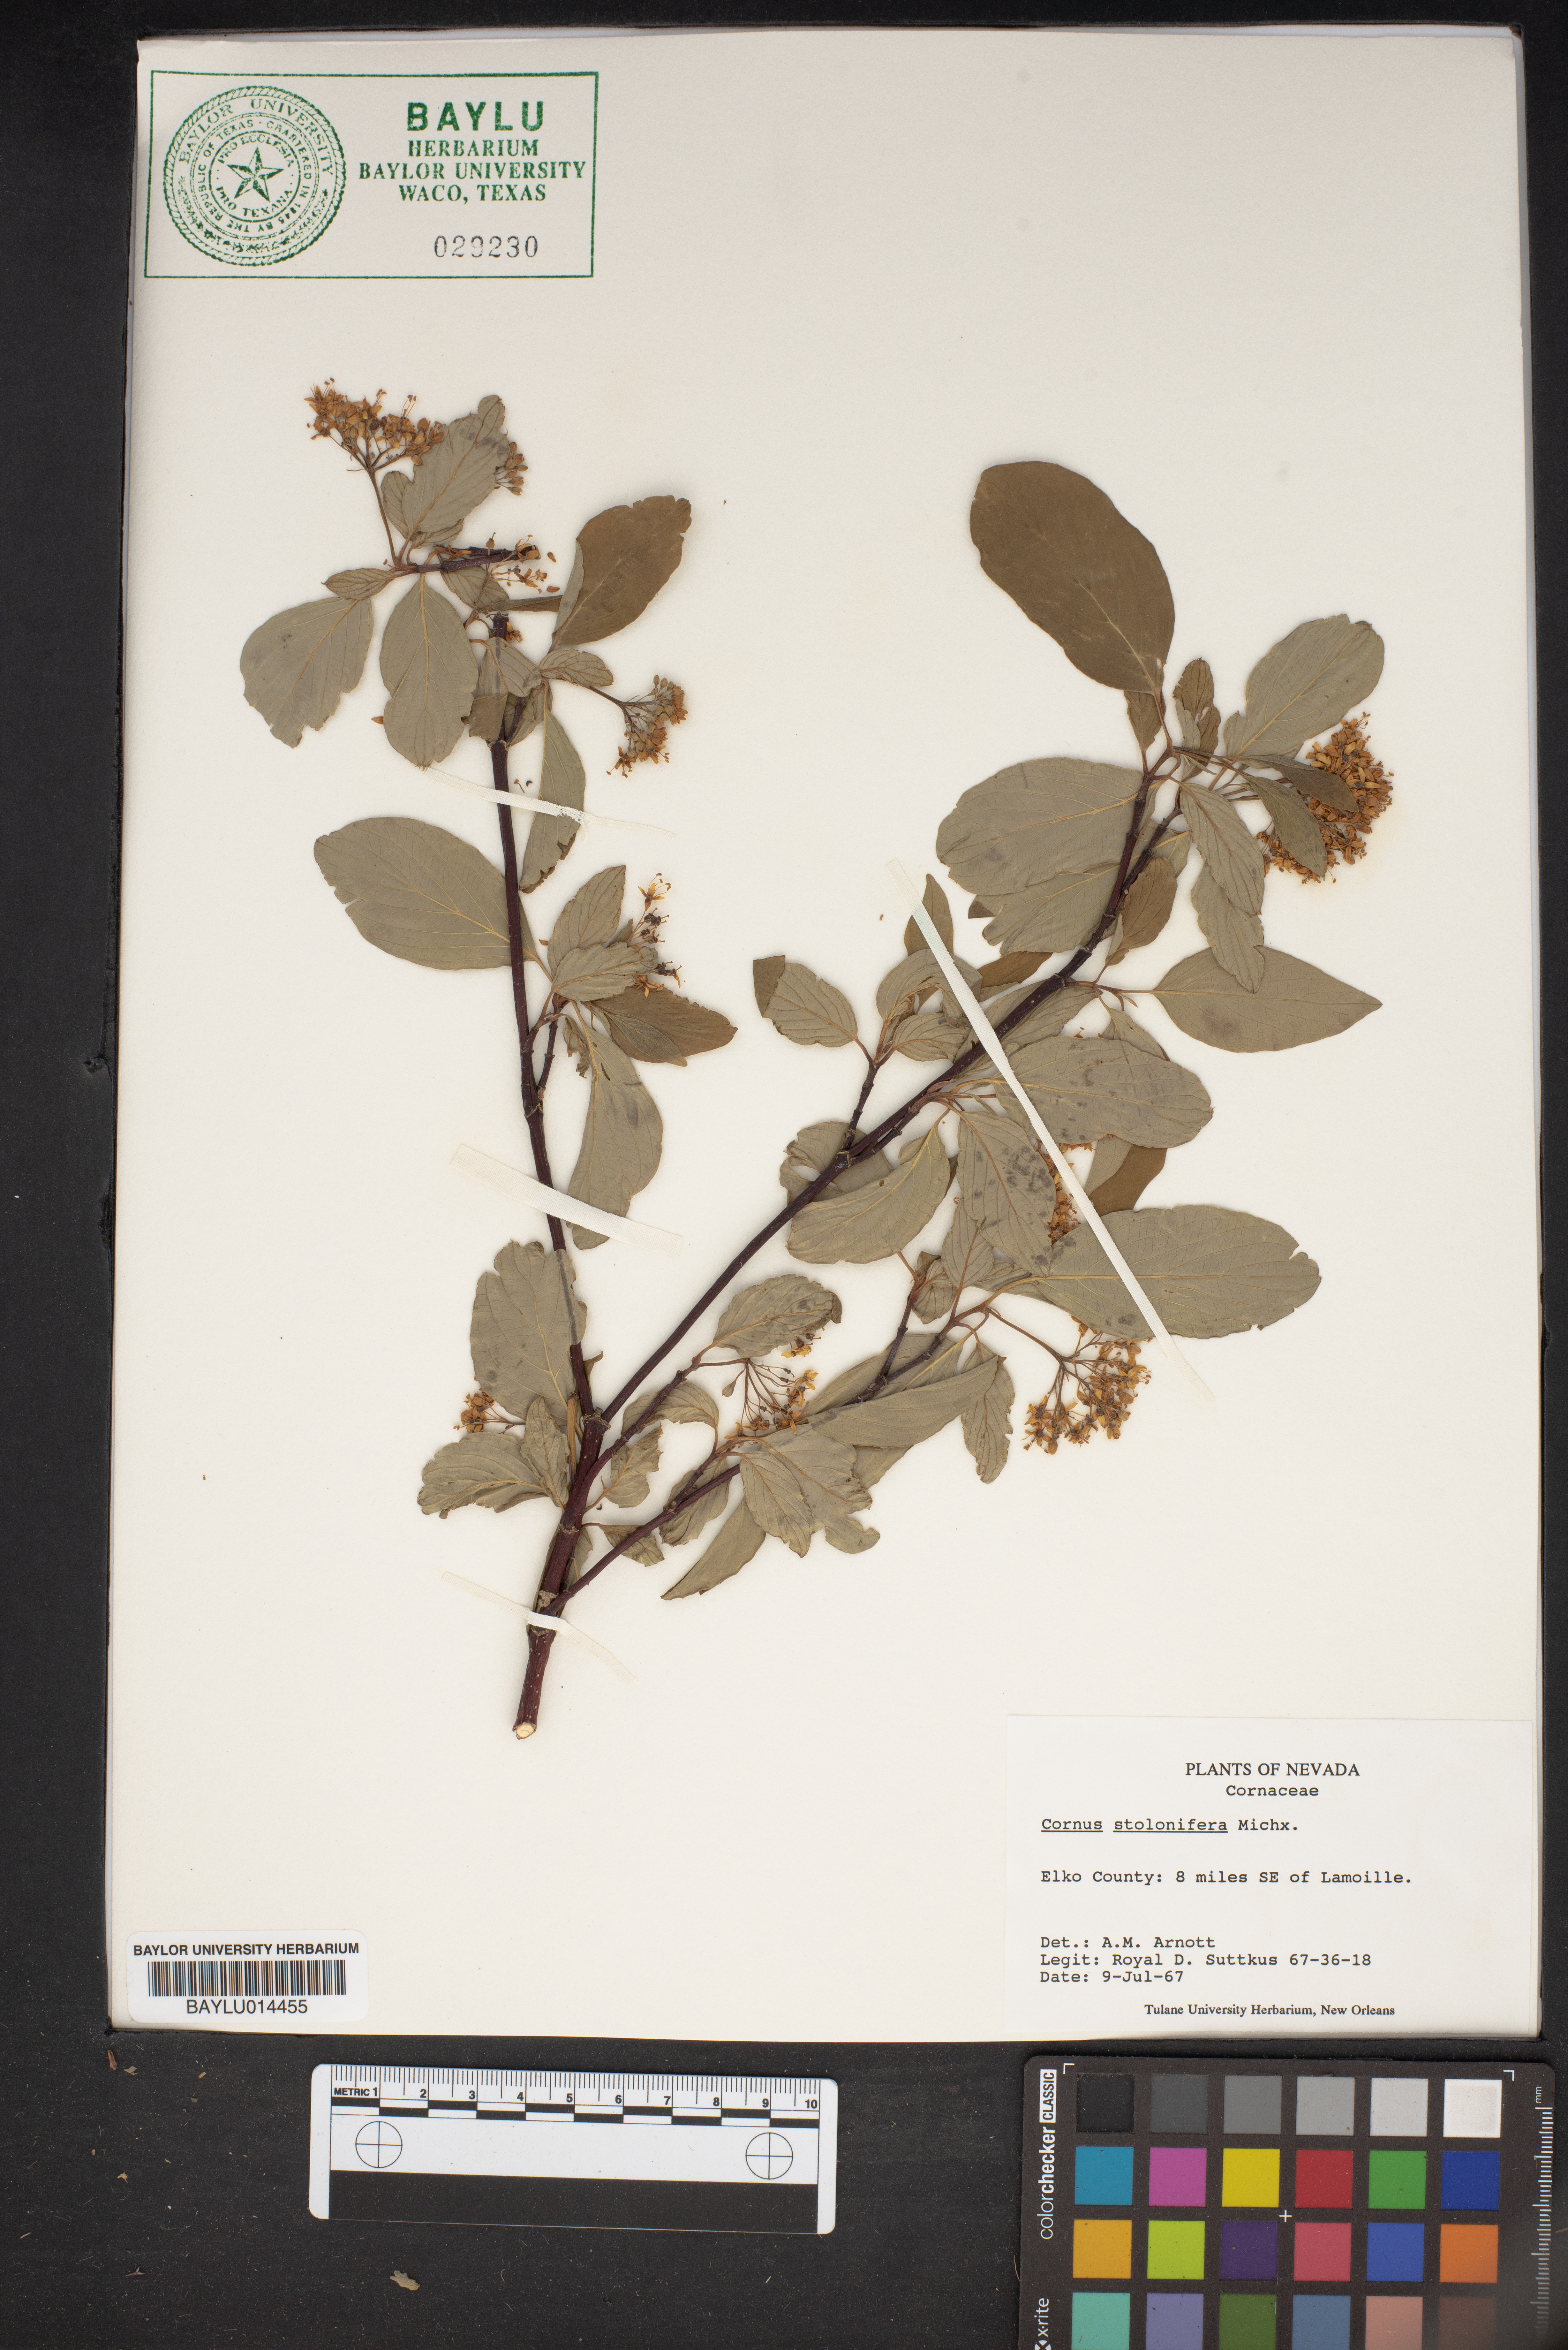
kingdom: Plantae
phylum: Tracheophyta
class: Magnoliopsida
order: Cornales
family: Cornaceae
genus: Cornus
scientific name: Cornus sericea
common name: Red-osier dogwood
